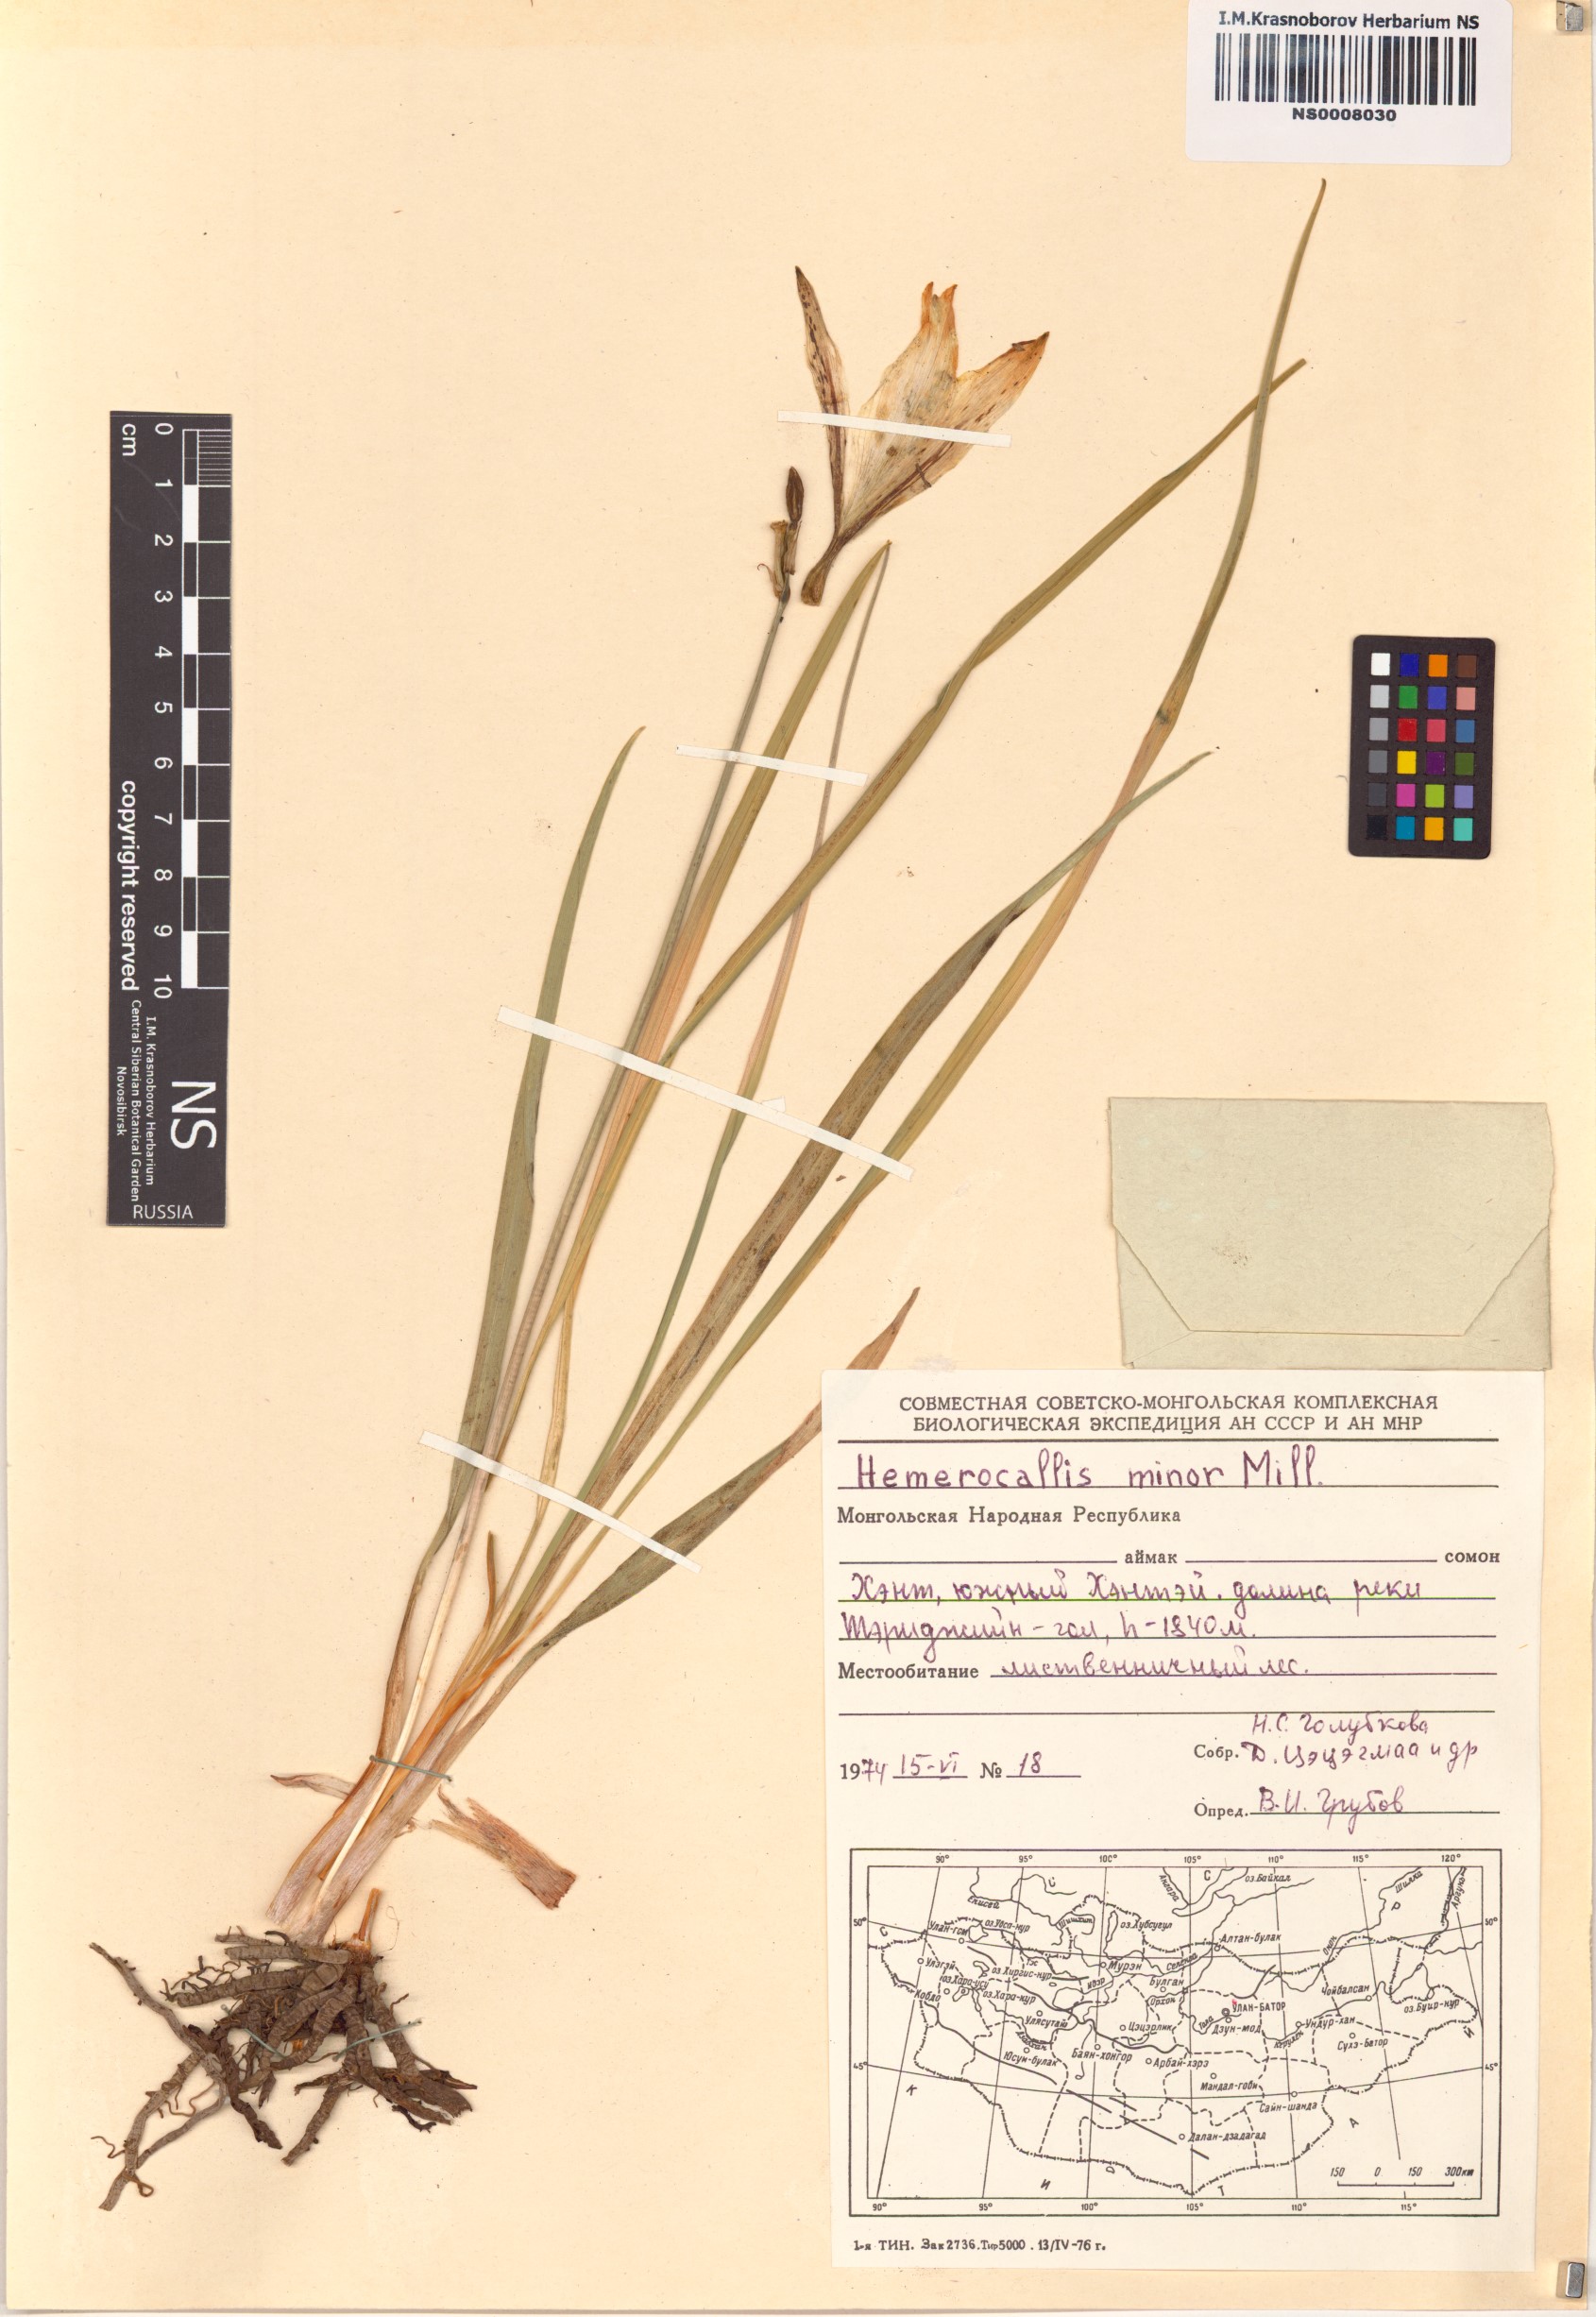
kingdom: Plantae
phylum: Tracheophyta
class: Liliopsida
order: Asparagales
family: Asphodelaceae
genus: Hemerocallis
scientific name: Hemerocallis minor
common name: Small daylily
